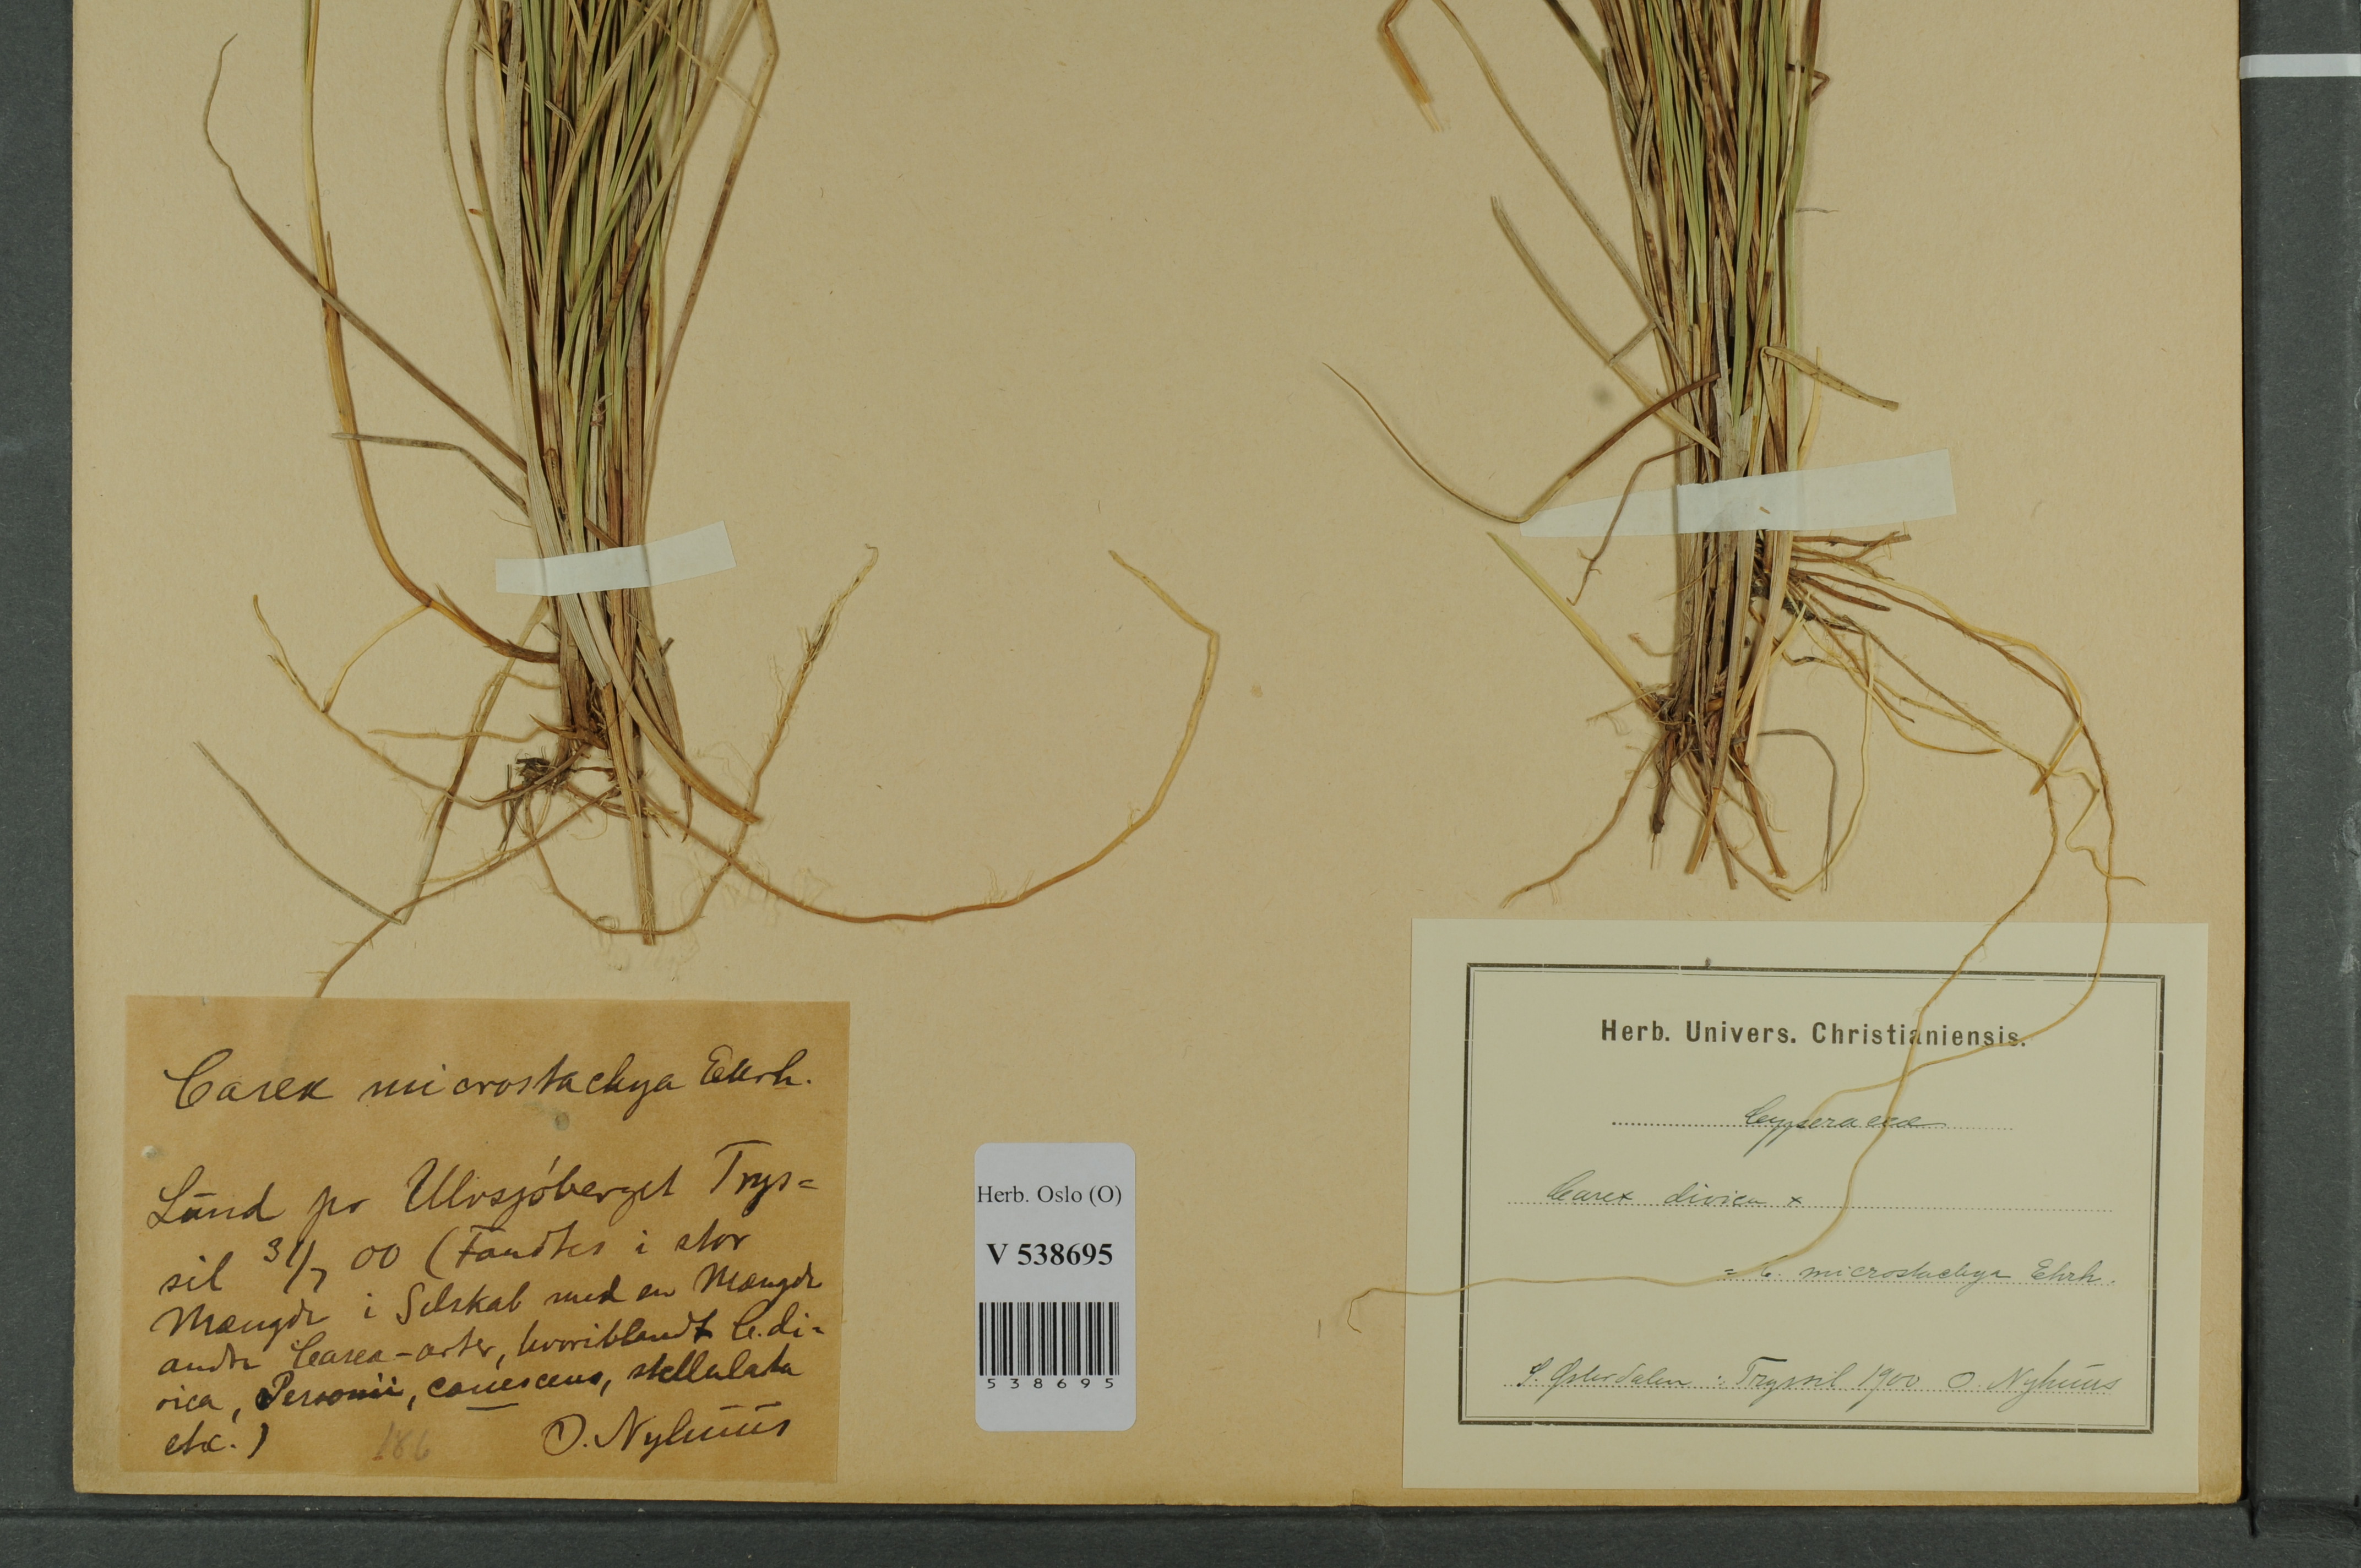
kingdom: Plantae
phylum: Tracheophyta
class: Liliopsida
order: Poales
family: Cyperaceae
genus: Carex
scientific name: Carex
